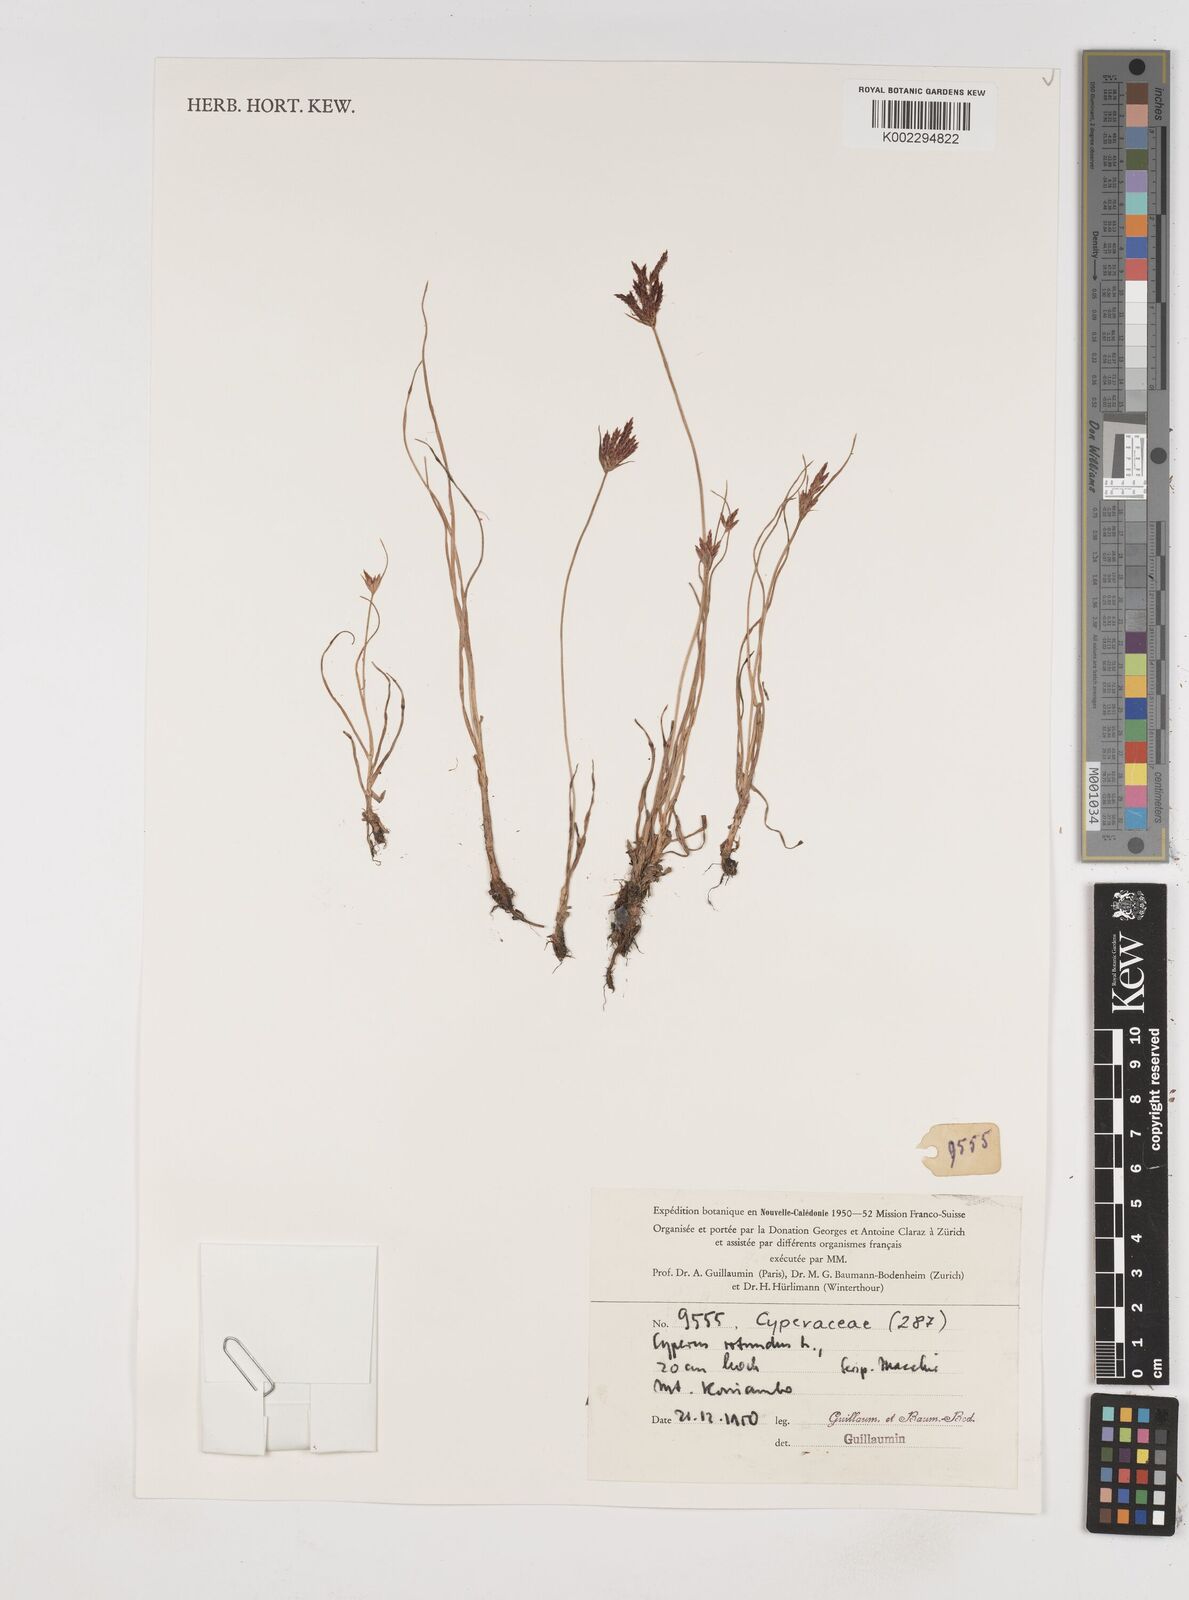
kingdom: Plantae
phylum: Tracheophyta
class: Liliopsida
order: Poales
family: Cyperaceae
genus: Cyperus
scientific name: Cyperus rotundus
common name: Nutgrass
